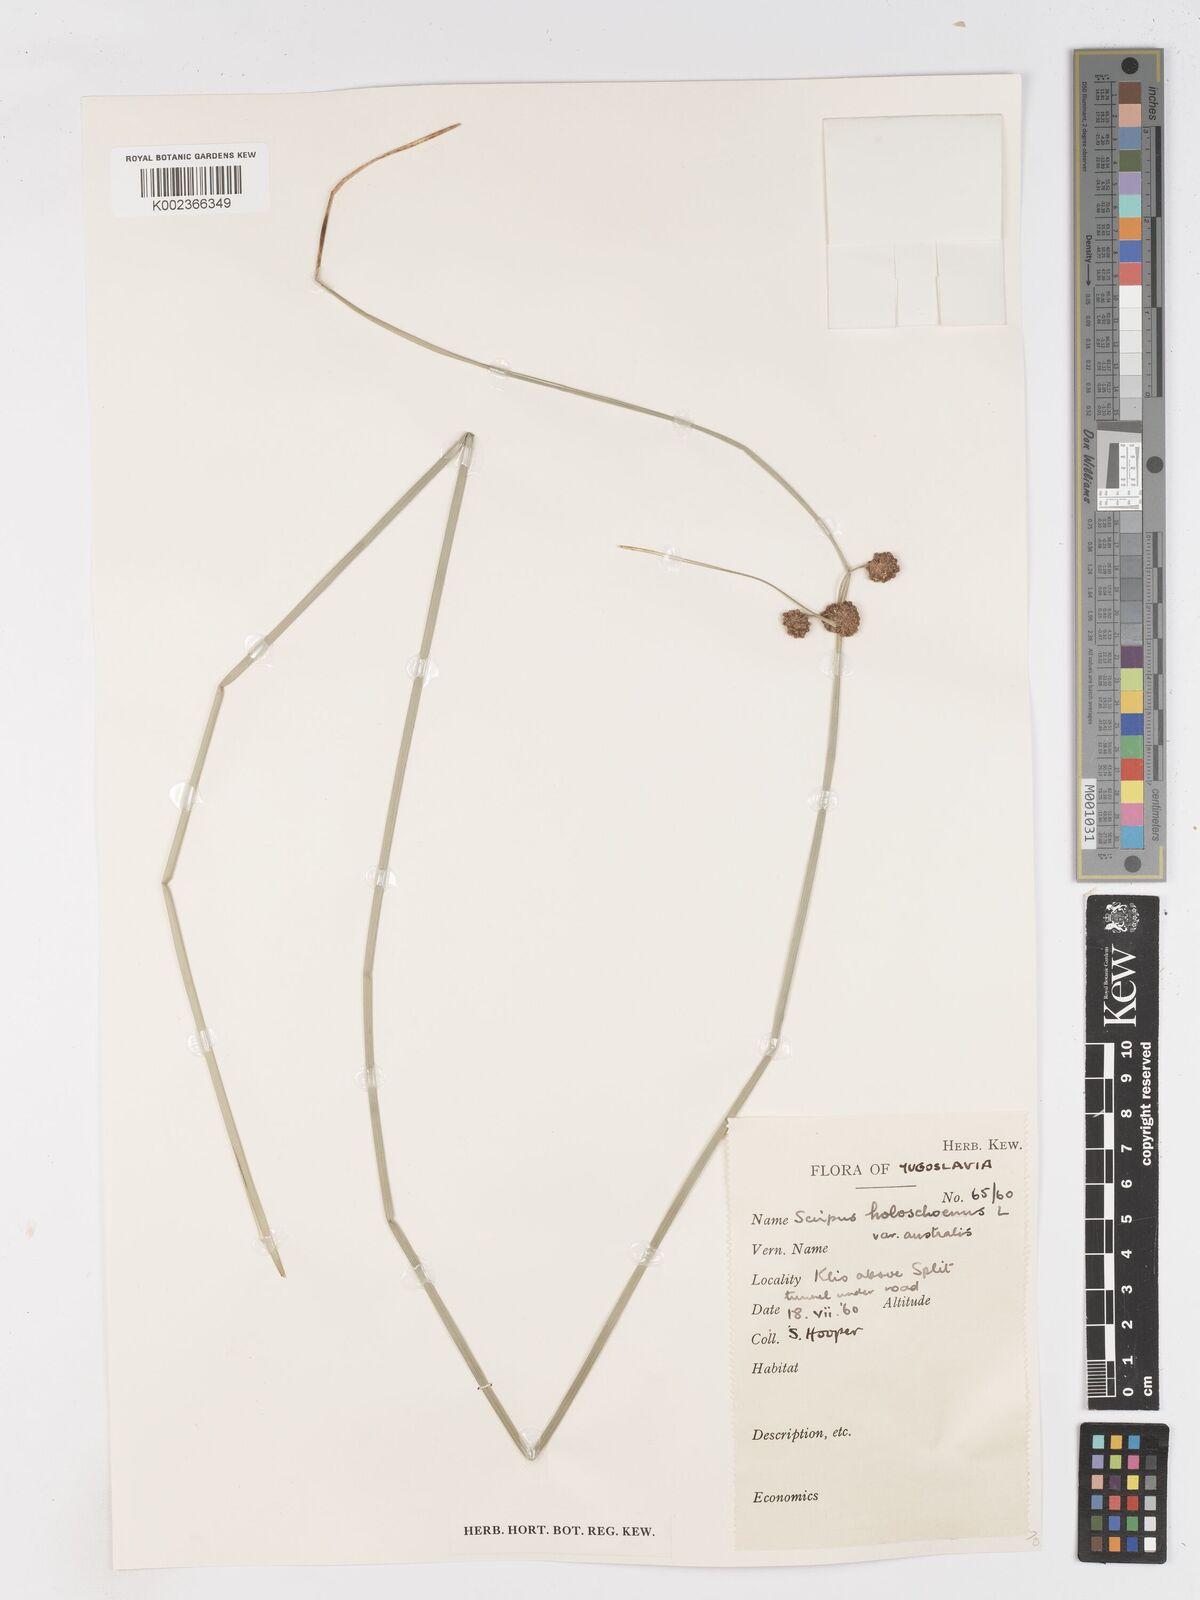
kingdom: Plantae
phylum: Tracheophyta
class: Liliopsida
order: Poales
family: Cyperaceae
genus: Scirpoides
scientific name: Scirpoides holoschoenus
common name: Round-headed club-rush
